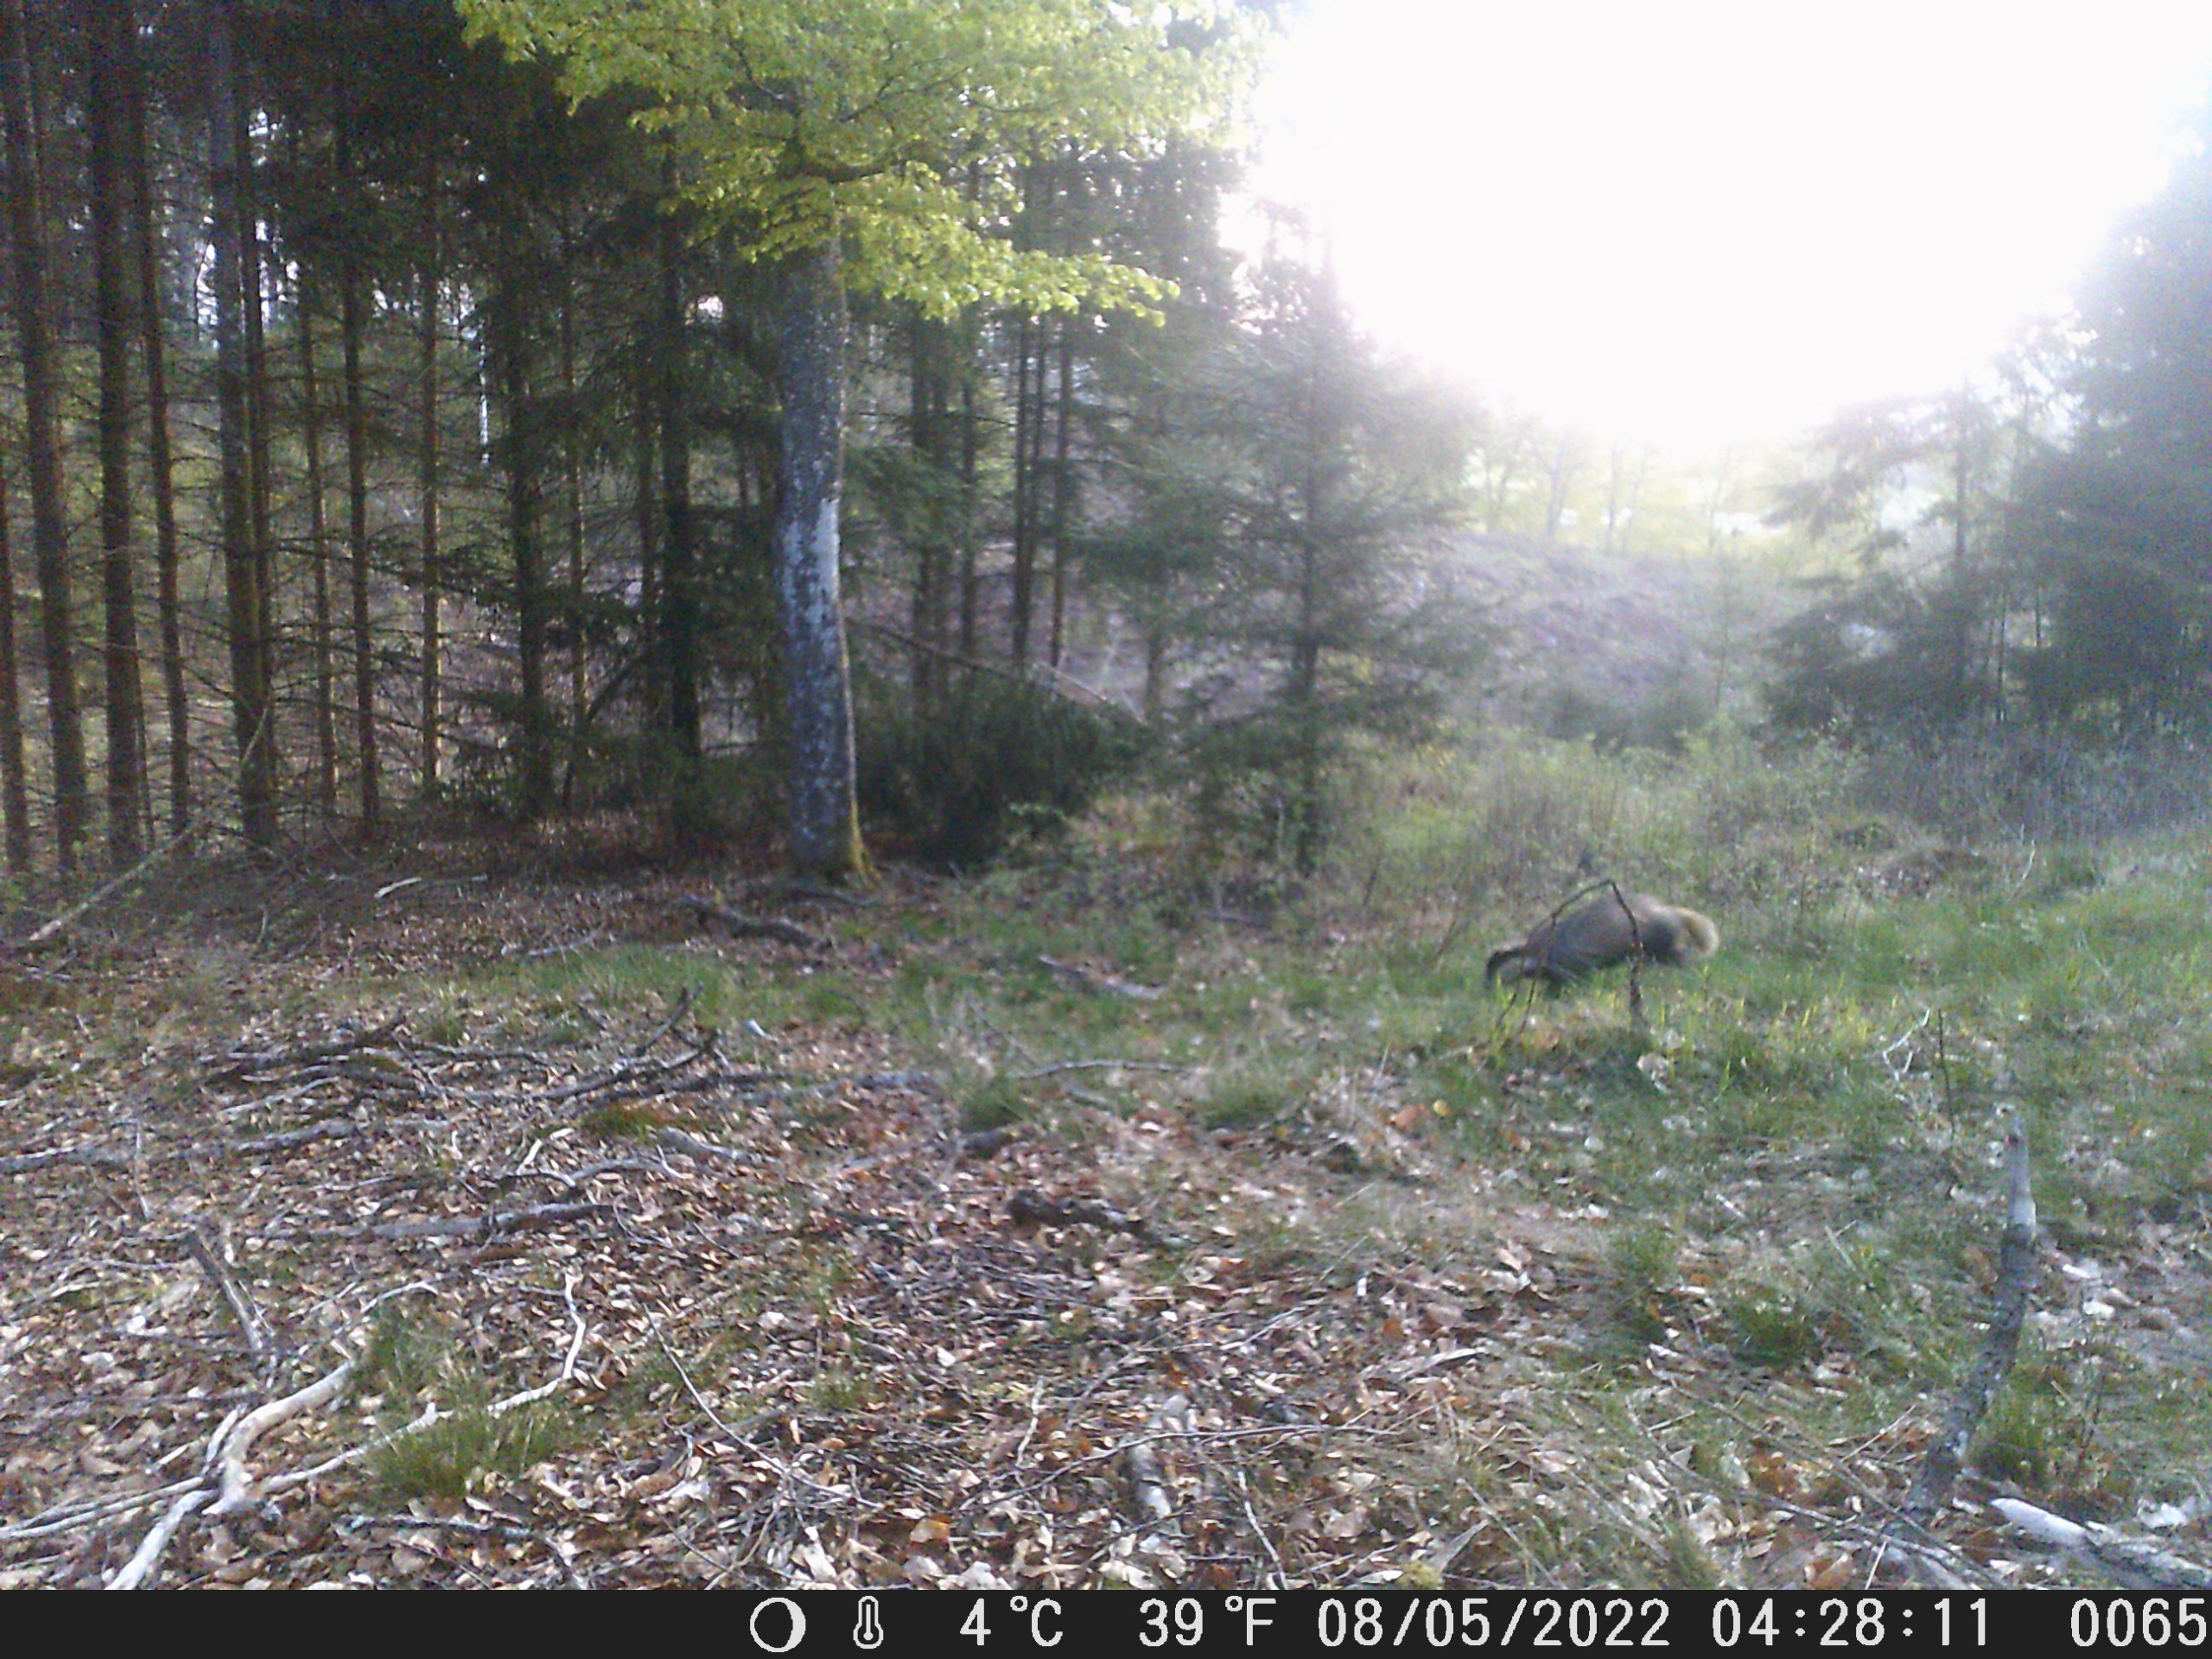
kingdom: Animalia
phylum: Chordata
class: Mammalia
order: Carnivora
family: Mustelidae
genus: Meles
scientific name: Meles meles
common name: Grævling
